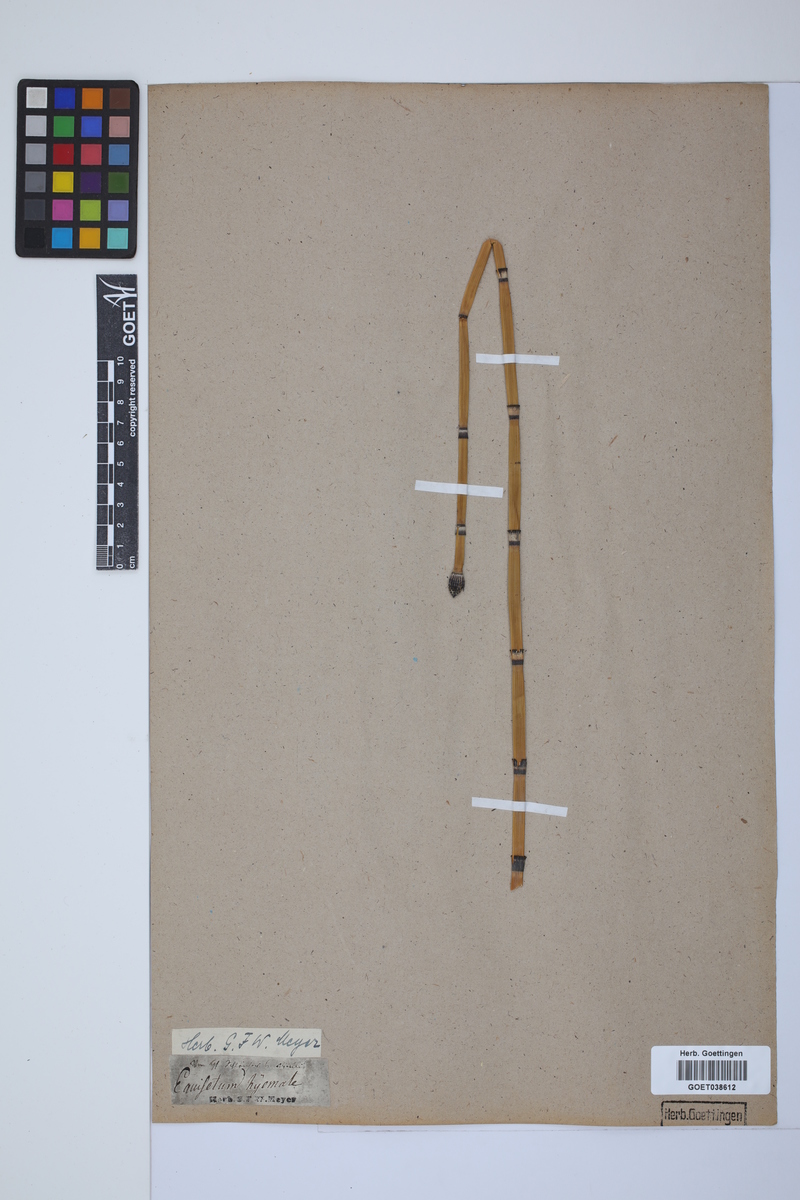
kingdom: Plantae
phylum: Tracheophyta
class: Polypodiopsida
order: Equisetales
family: Equisetaceae
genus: Equisetum
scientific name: Equisetum hyemale
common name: Rough horsetail
